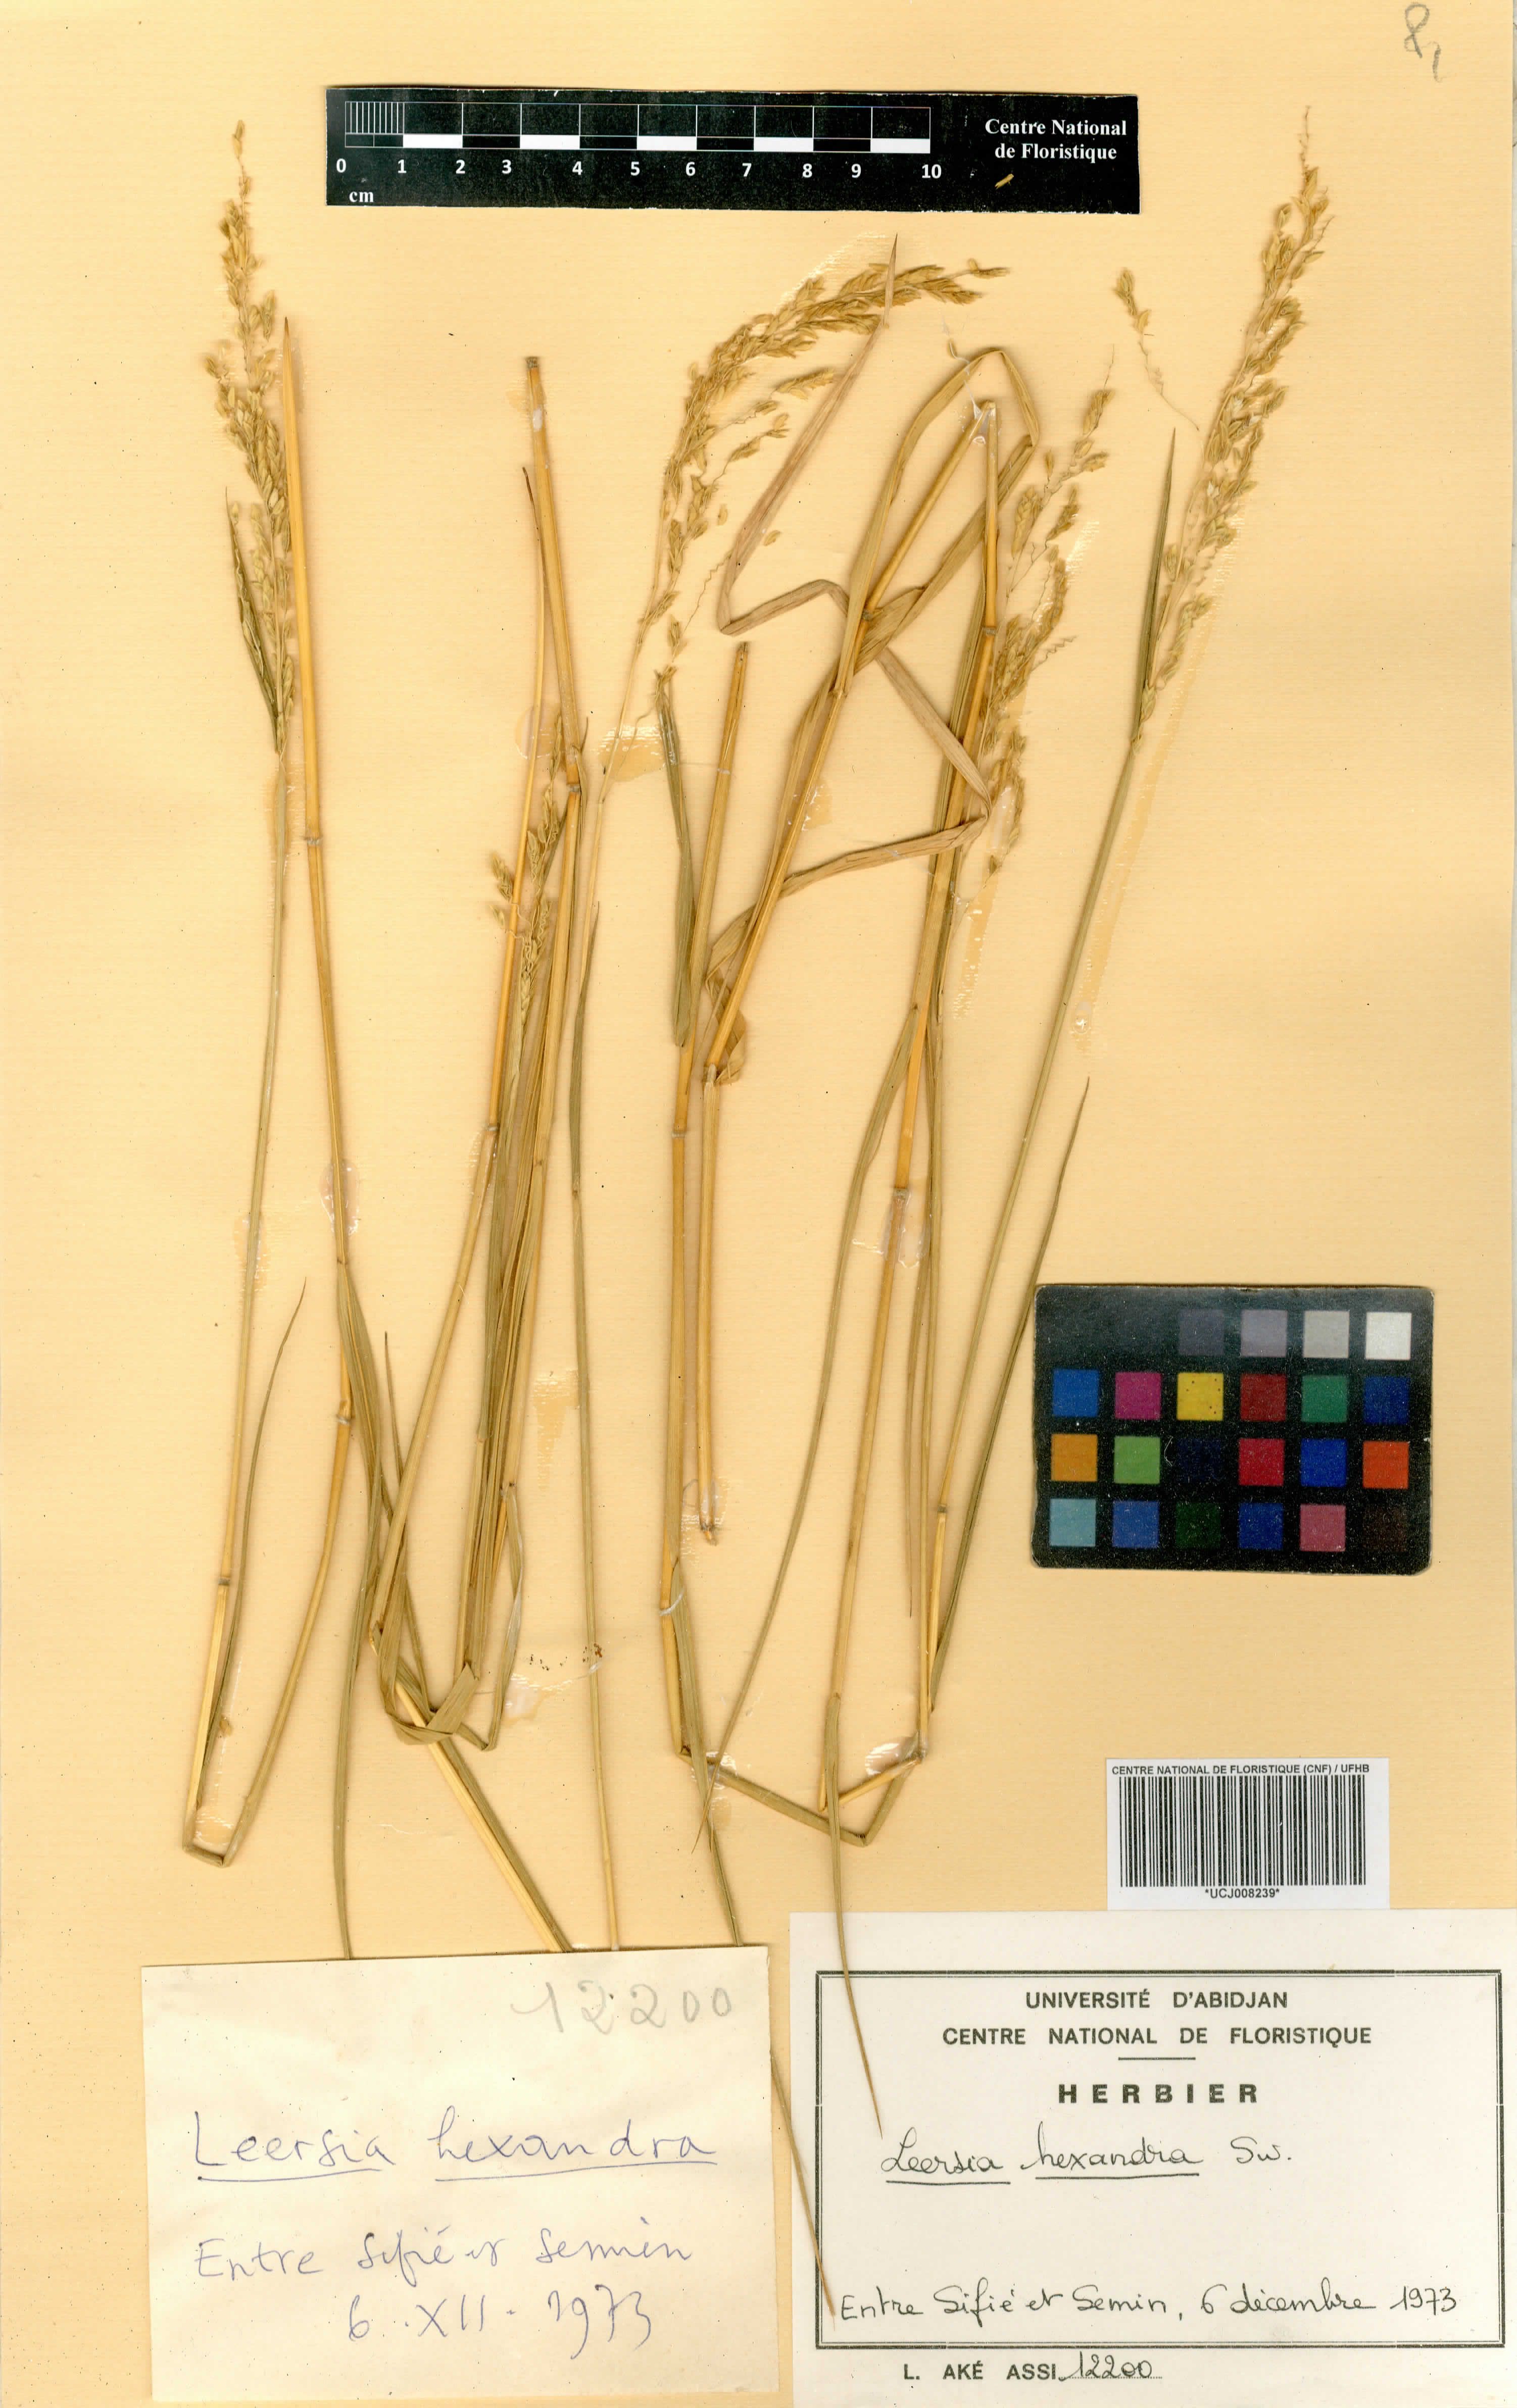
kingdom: Plantae
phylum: Tracheophyta
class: Liliopsida
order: Poales
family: Poaceae
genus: Leersia
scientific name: Leersia hexandra
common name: Southern cut grass
